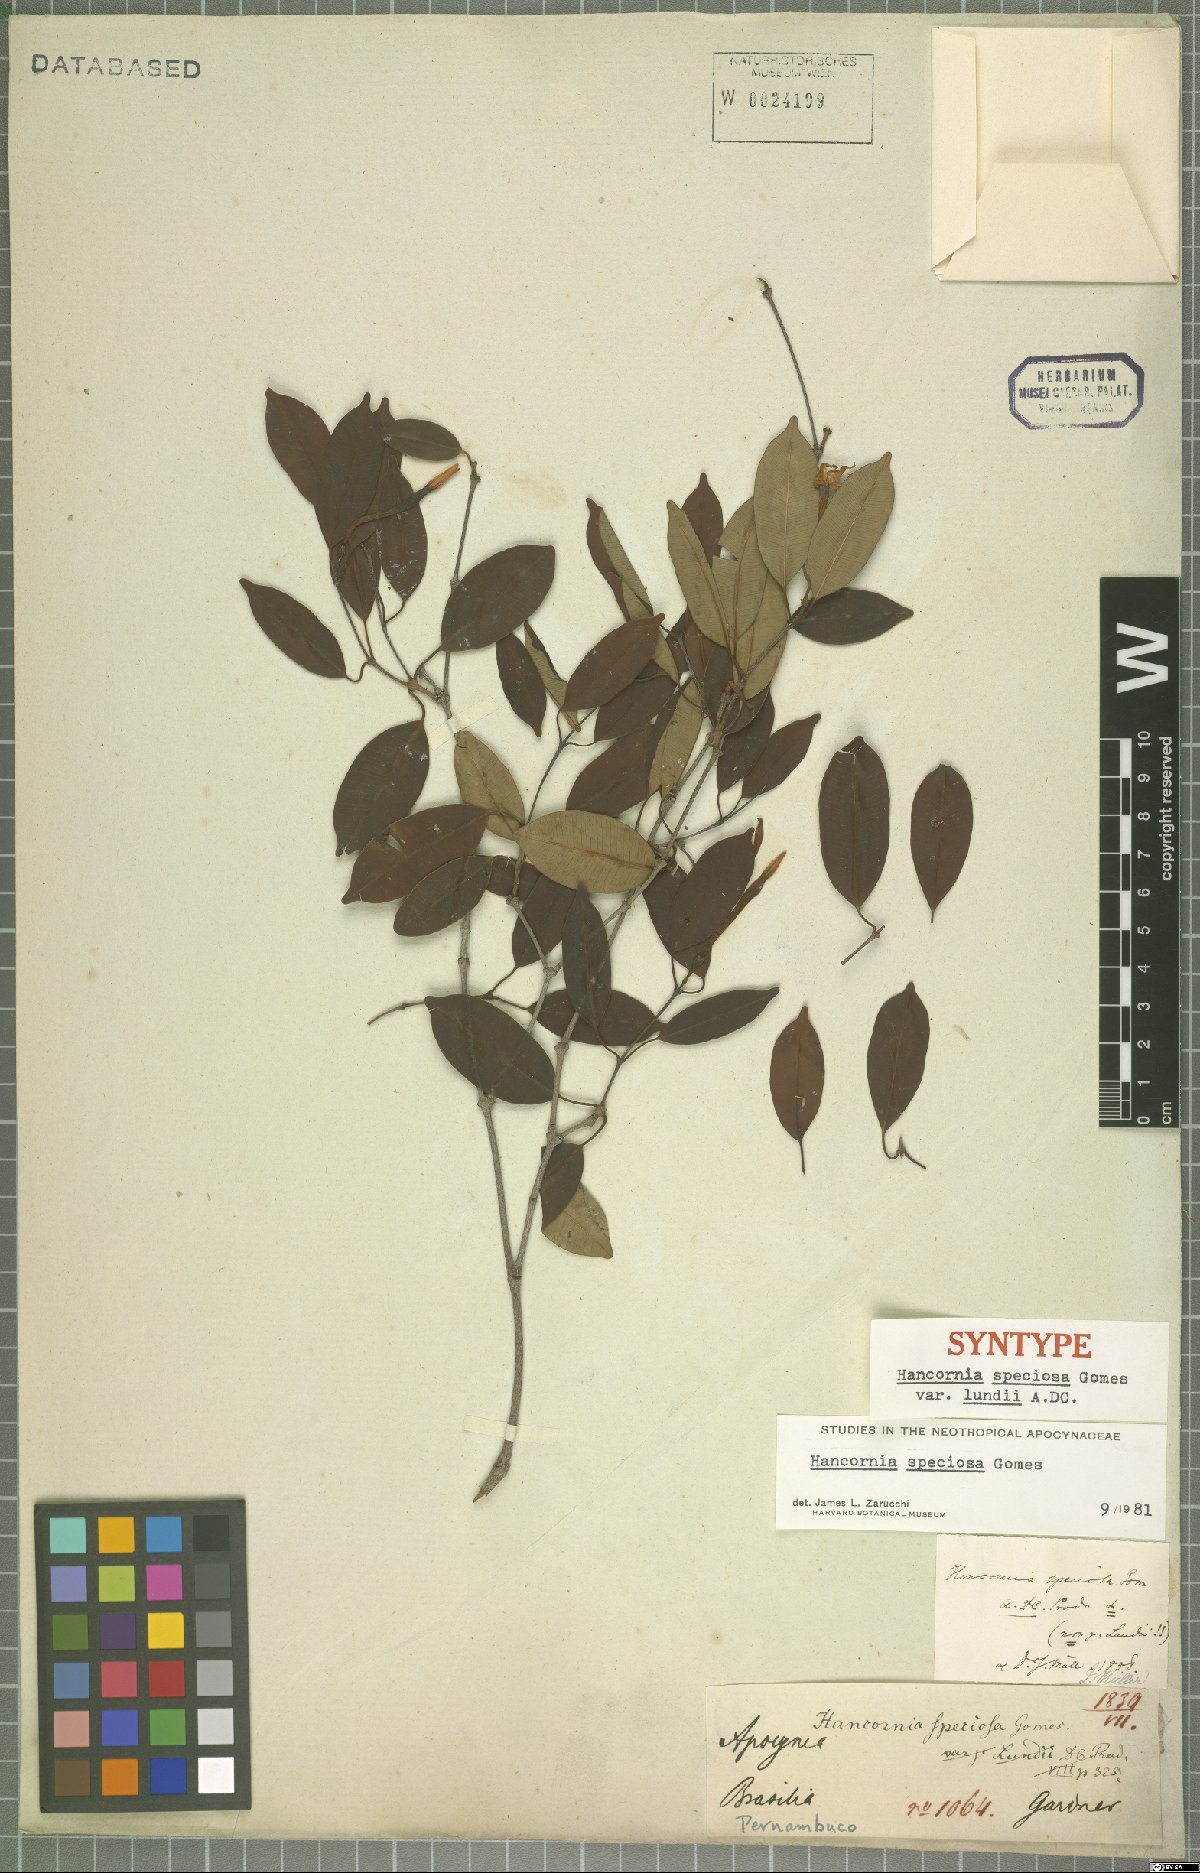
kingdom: Plantae
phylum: Tracheophyta
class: Magnoliopsida
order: Gentianales
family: Apocynaceae
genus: Hancornia
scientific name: Hancornia speciosa
